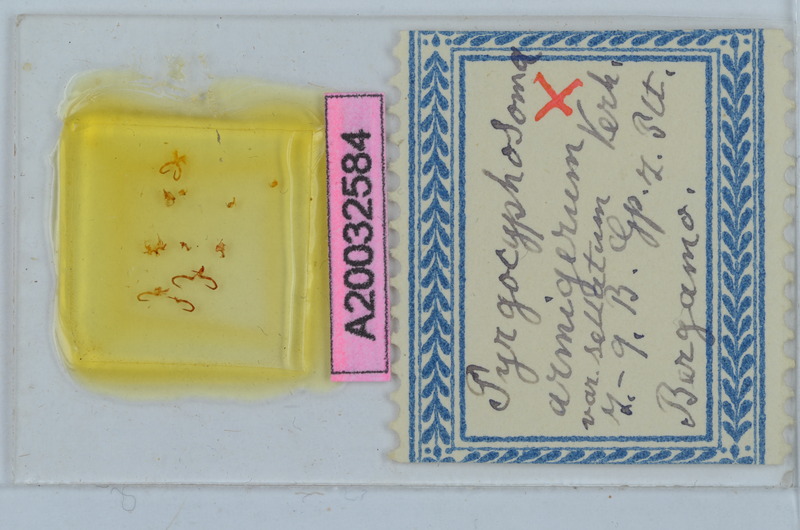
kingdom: Animalia
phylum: Arthropoda
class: Diplopoda
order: Chordeumatida
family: Craspedosomatidae
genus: Pyrgocyphosoma
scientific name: Pyrgocyphosoma armigerum
